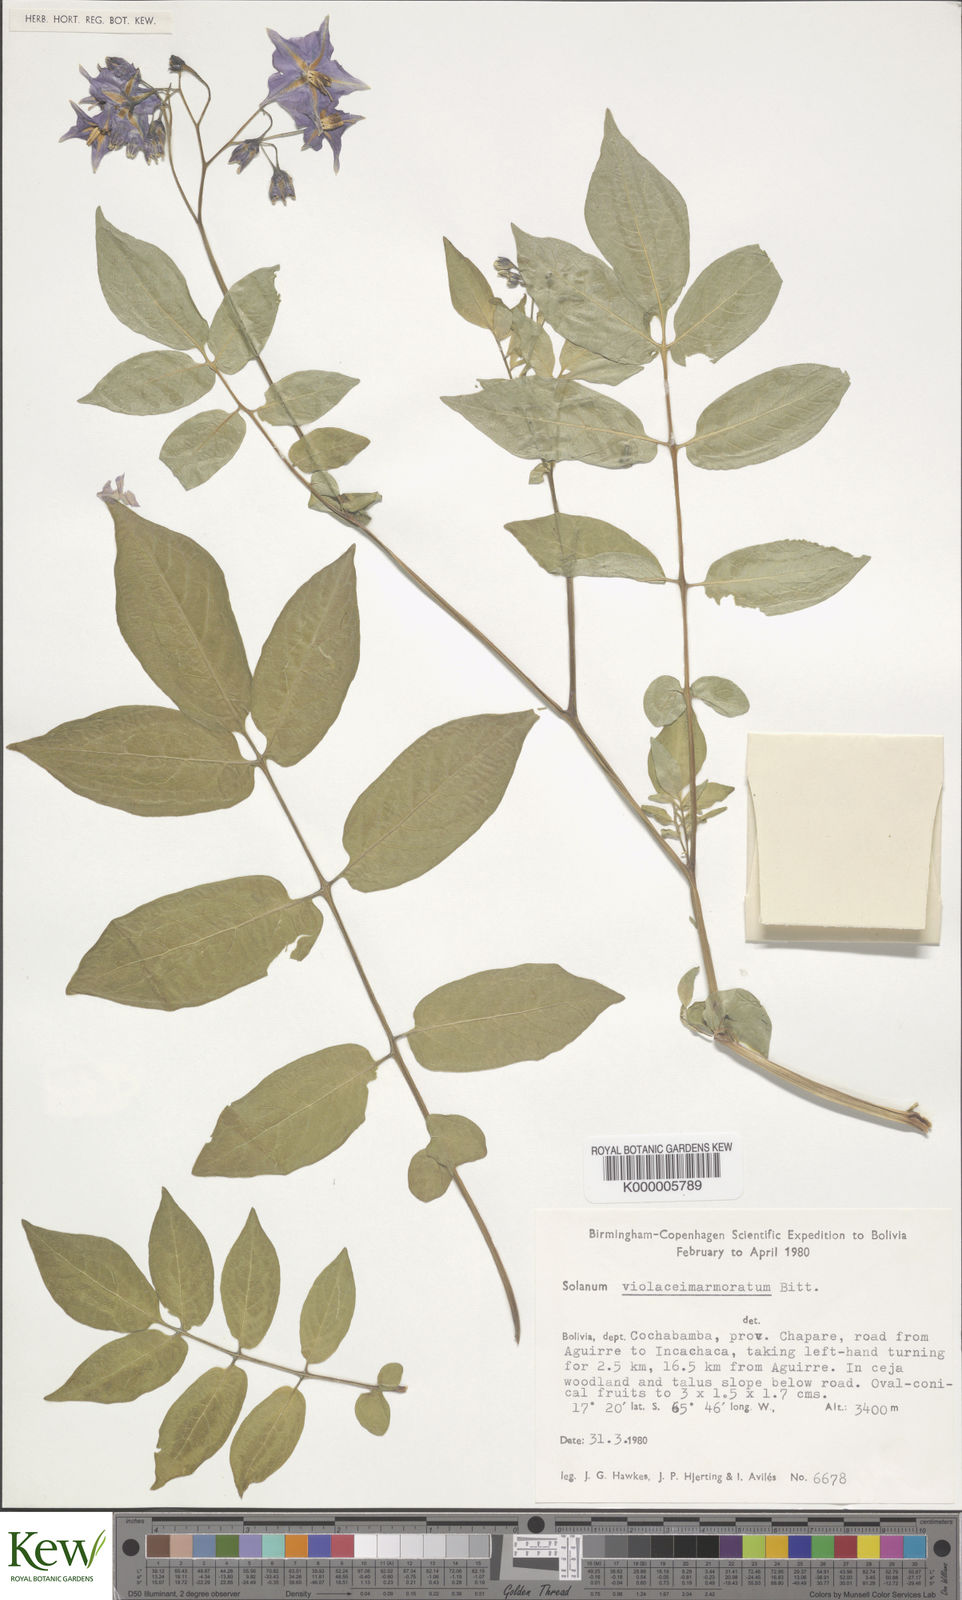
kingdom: Plantae
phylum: Tracheophyta
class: Magnoliopsida
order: Solanales
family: Solanaceae
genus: Solanum
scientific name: Solanum violaceimarmoratum
